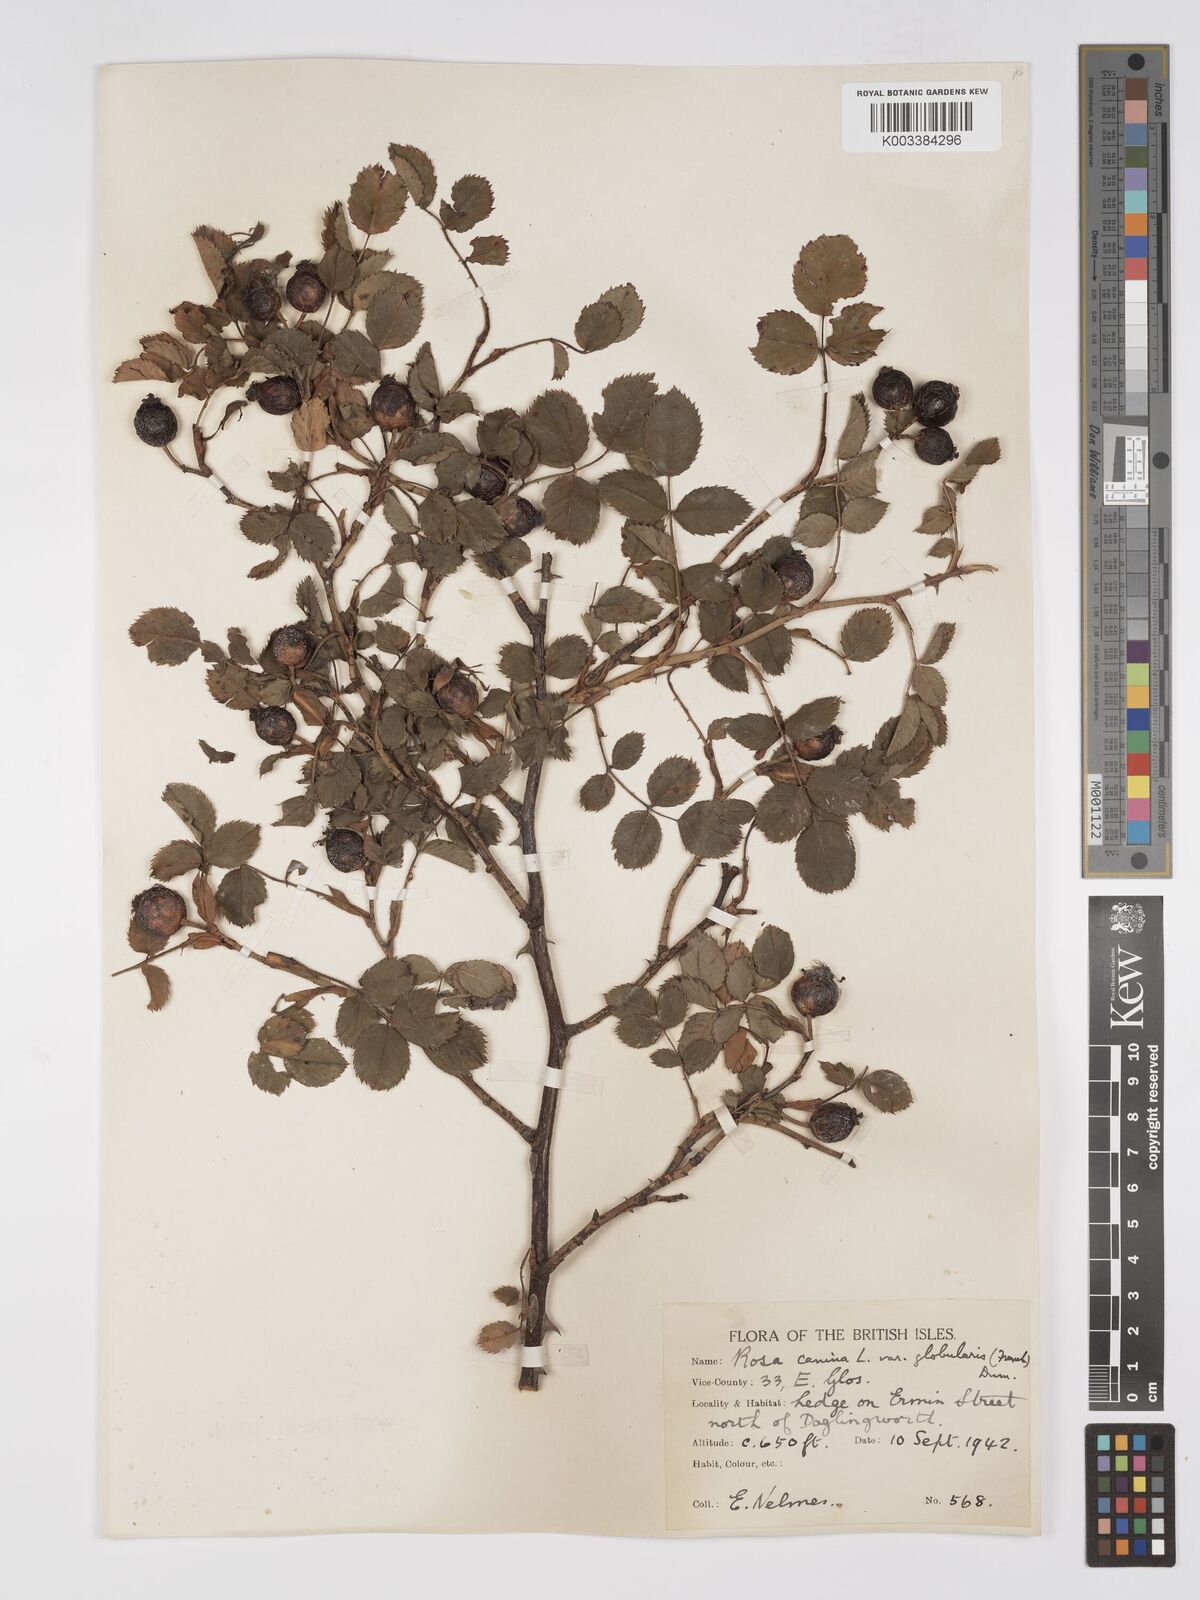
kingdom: Plantae
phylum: Tracheophyta
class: Magnoliopsida
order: Rosales
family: Rosaceae
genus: Rosa
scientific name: Rosa canina
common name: Dog rose
